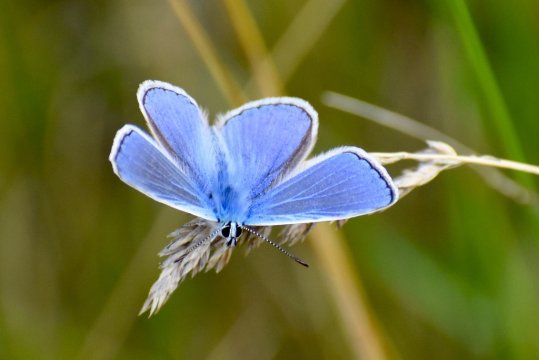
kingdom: Animalia
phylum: Arthropoda
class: Insecta
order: Lepidoptera
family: Lycaenidae
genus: Polyommatus
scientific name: Polyommatus icarus
